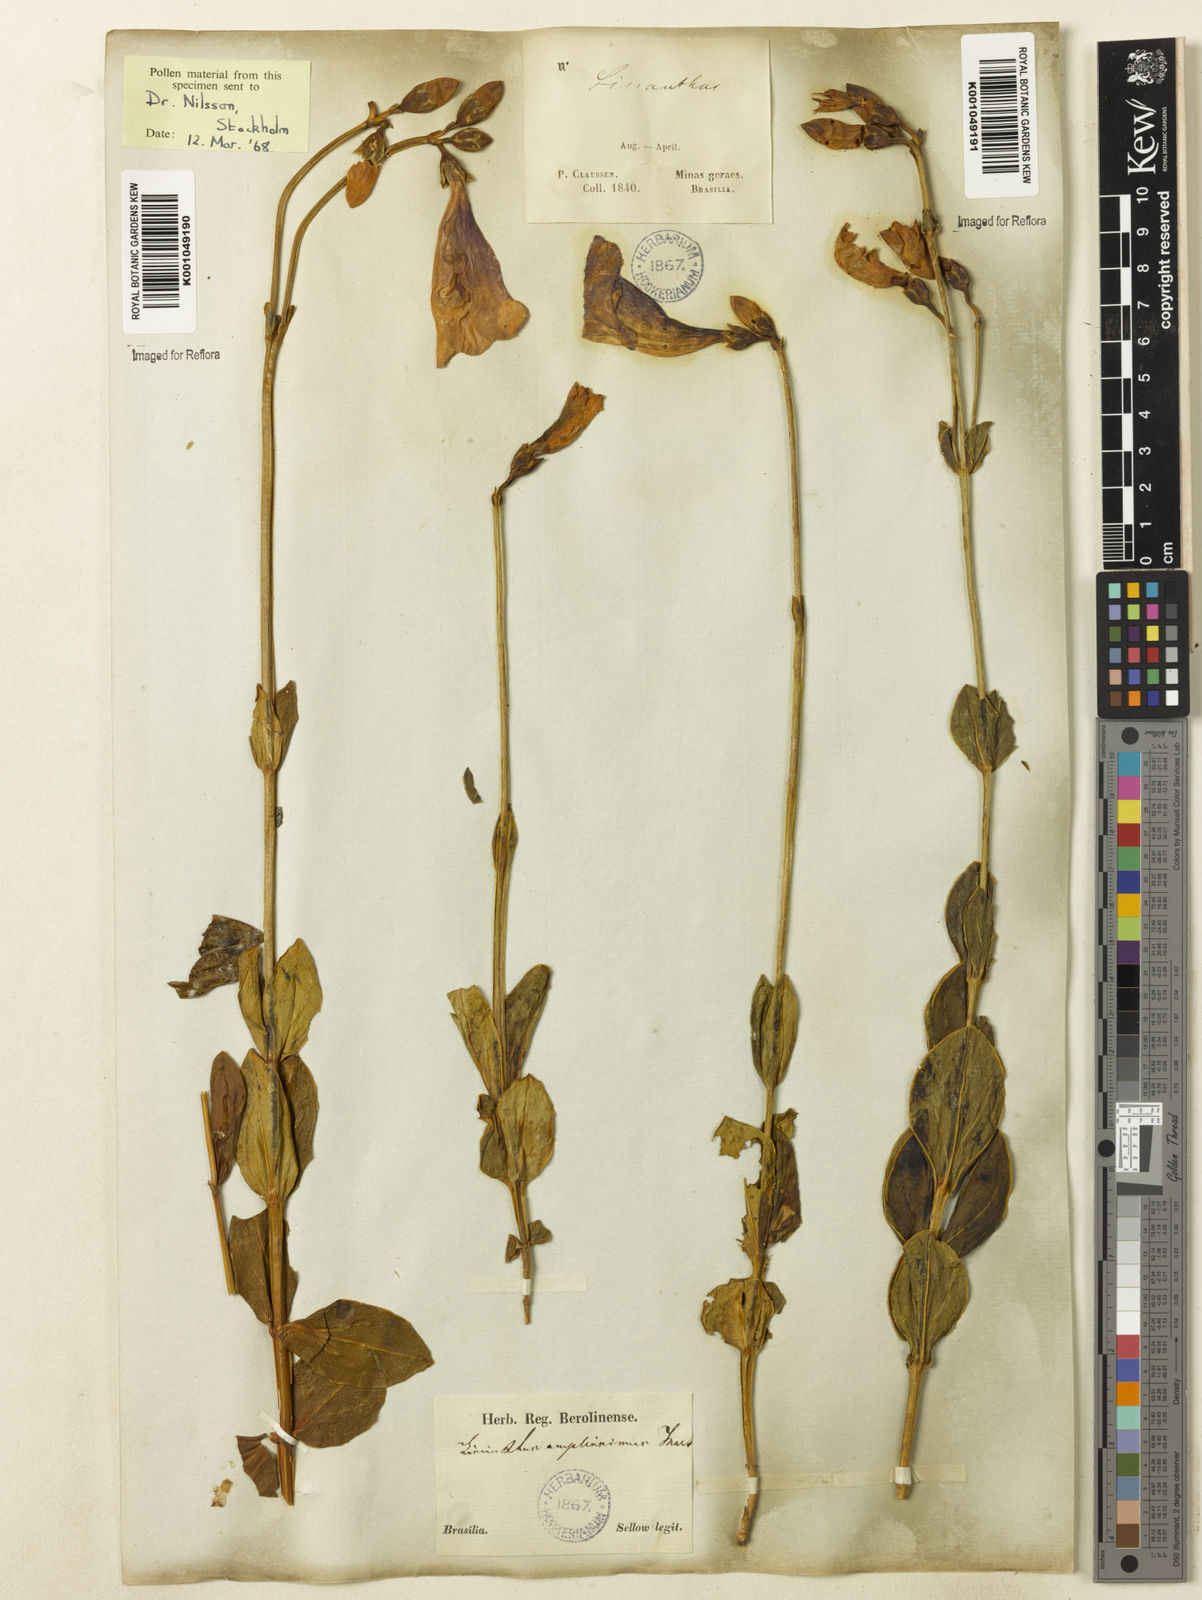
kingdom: Plantae
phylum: Tracheophyta
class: Magnoliopsida
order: Gentianales
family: Gentianaceae
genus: Calolisianthus
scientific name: Calolisianthus amplissimus
